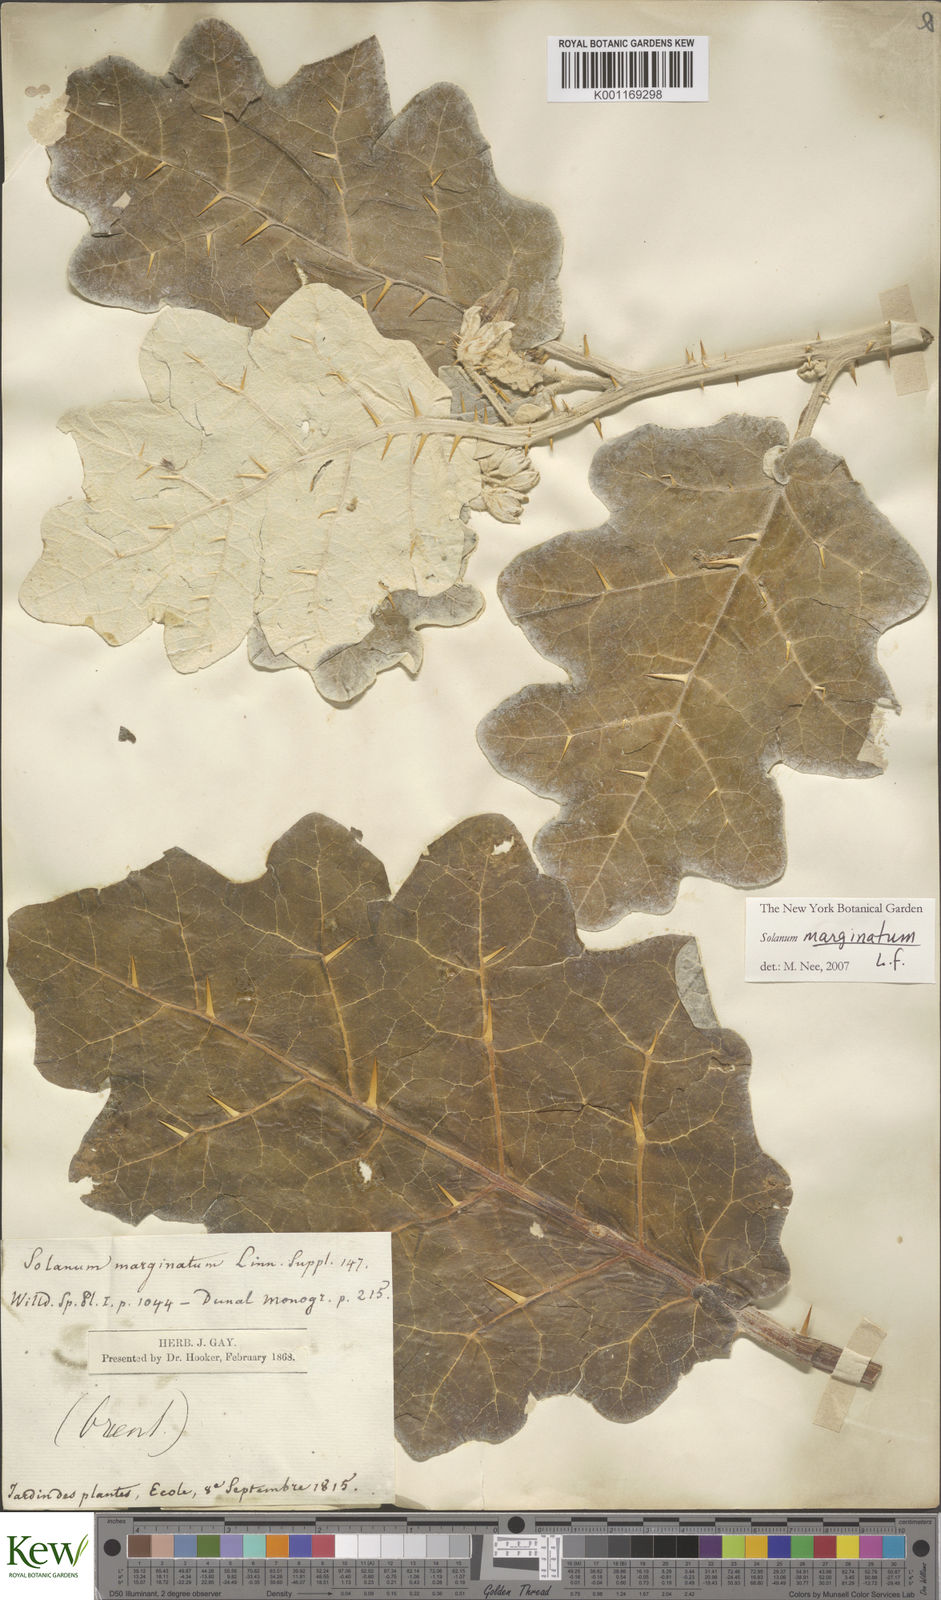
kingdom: Plantae
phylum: Tracheophyta
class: Magnoliopsida
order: Solanales
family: Solanaceae
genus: Solanum
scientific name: Solanum marginatum
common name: Purple african nightshade
